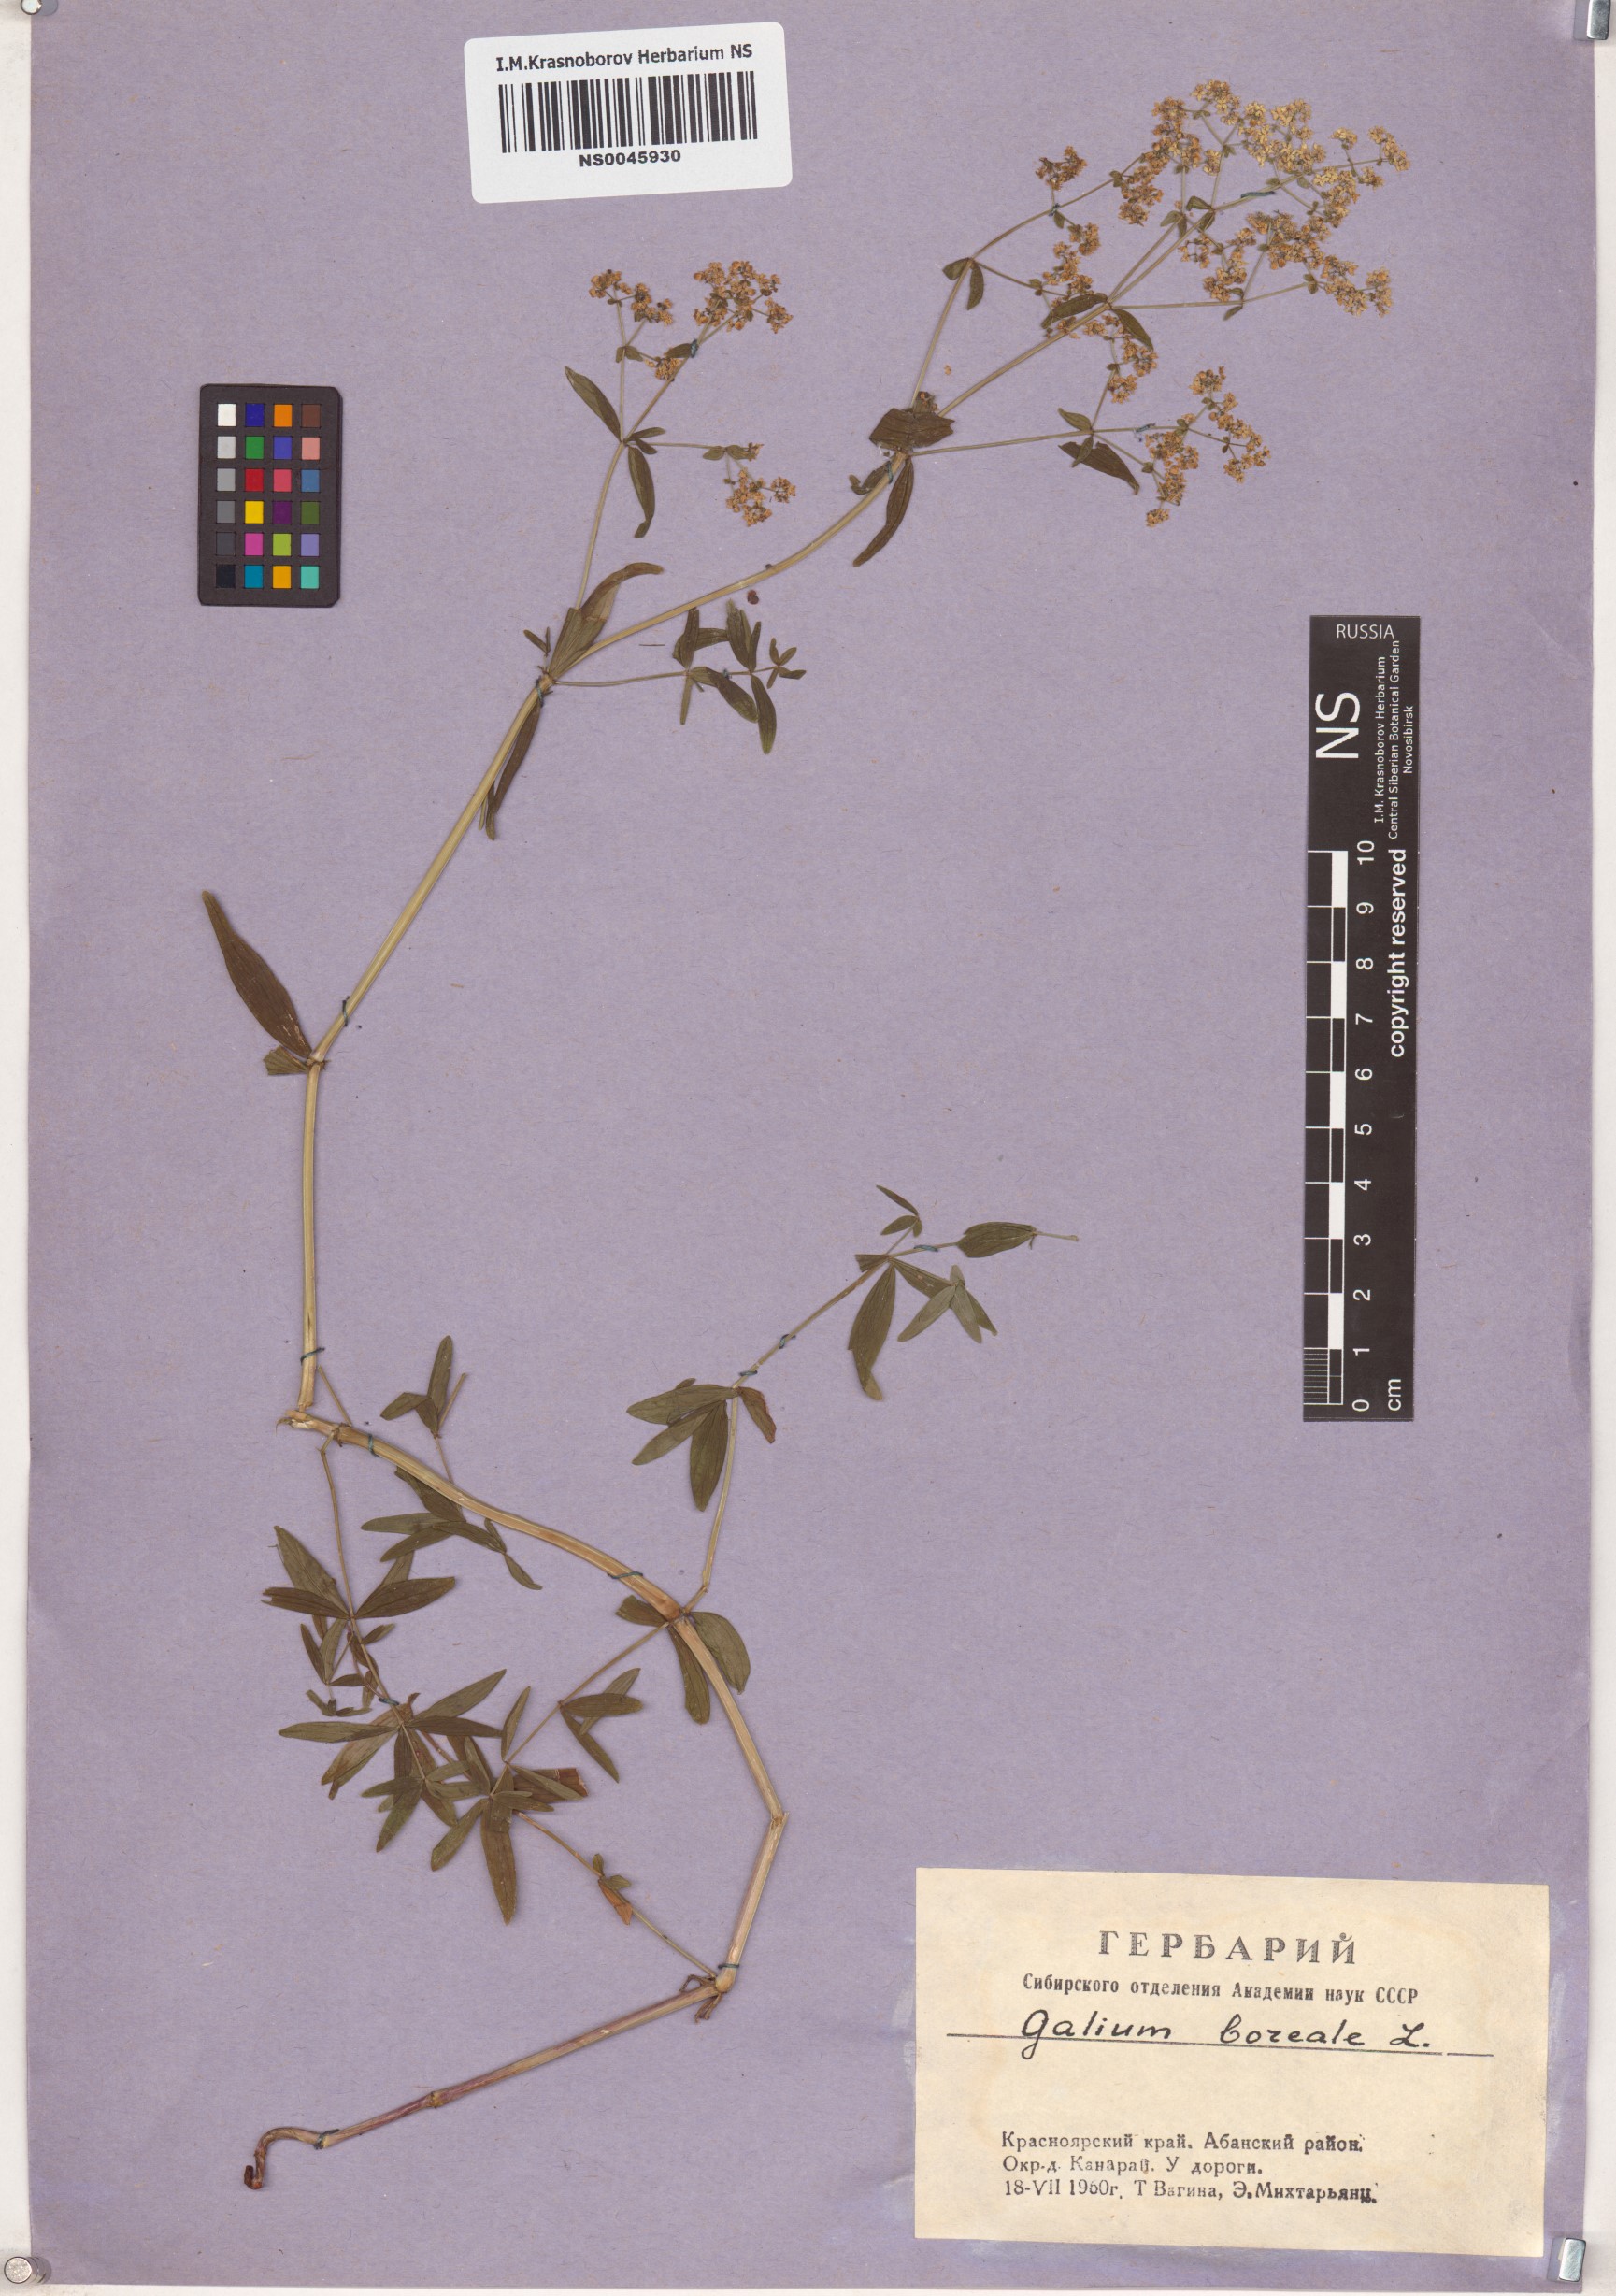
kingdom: Plantae
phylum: Tracheophyta
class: Magnoliopsida
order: Gentianales
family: Rubiaceae
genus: Galium
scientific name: Galium boreale
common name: Northern bedstraw
